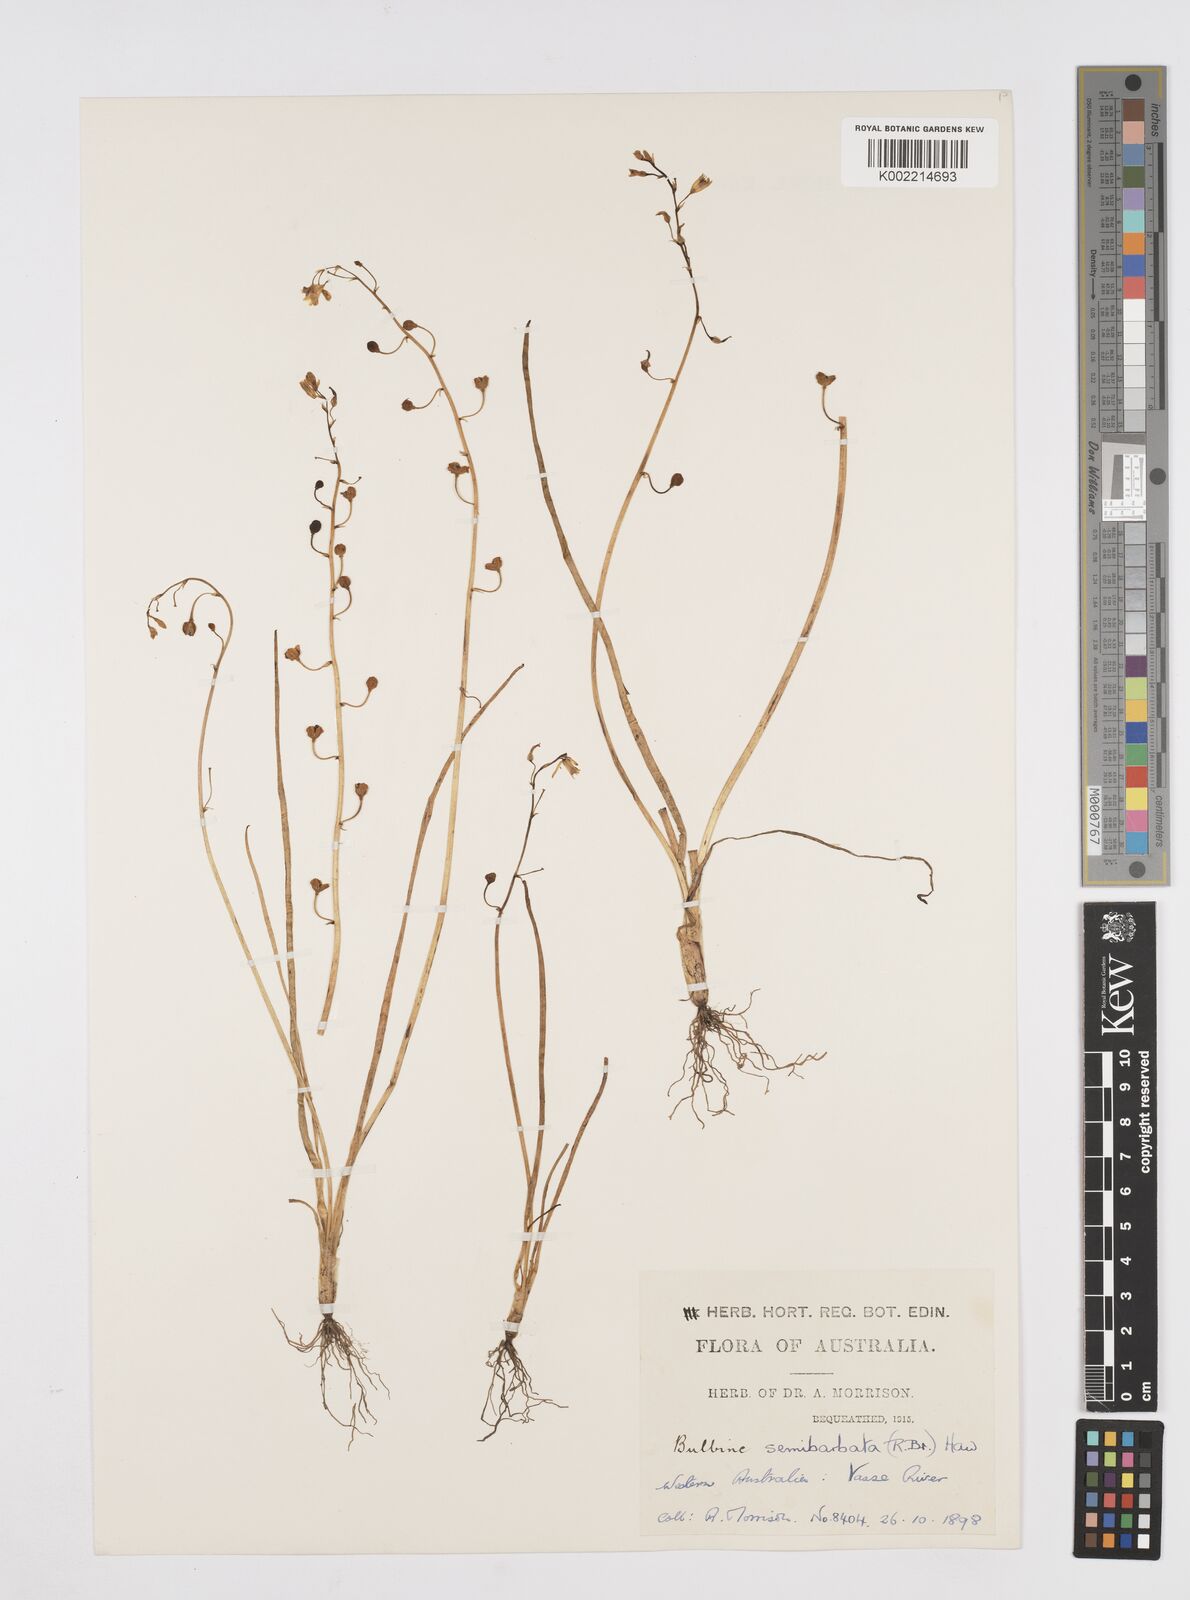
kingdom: Plantae
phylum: Tracheophyta
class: Liliopsida
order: Asparagales
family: Asphodelaceae
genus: Bulbine
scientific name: Bulbine semibarbata
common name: Leek lily
